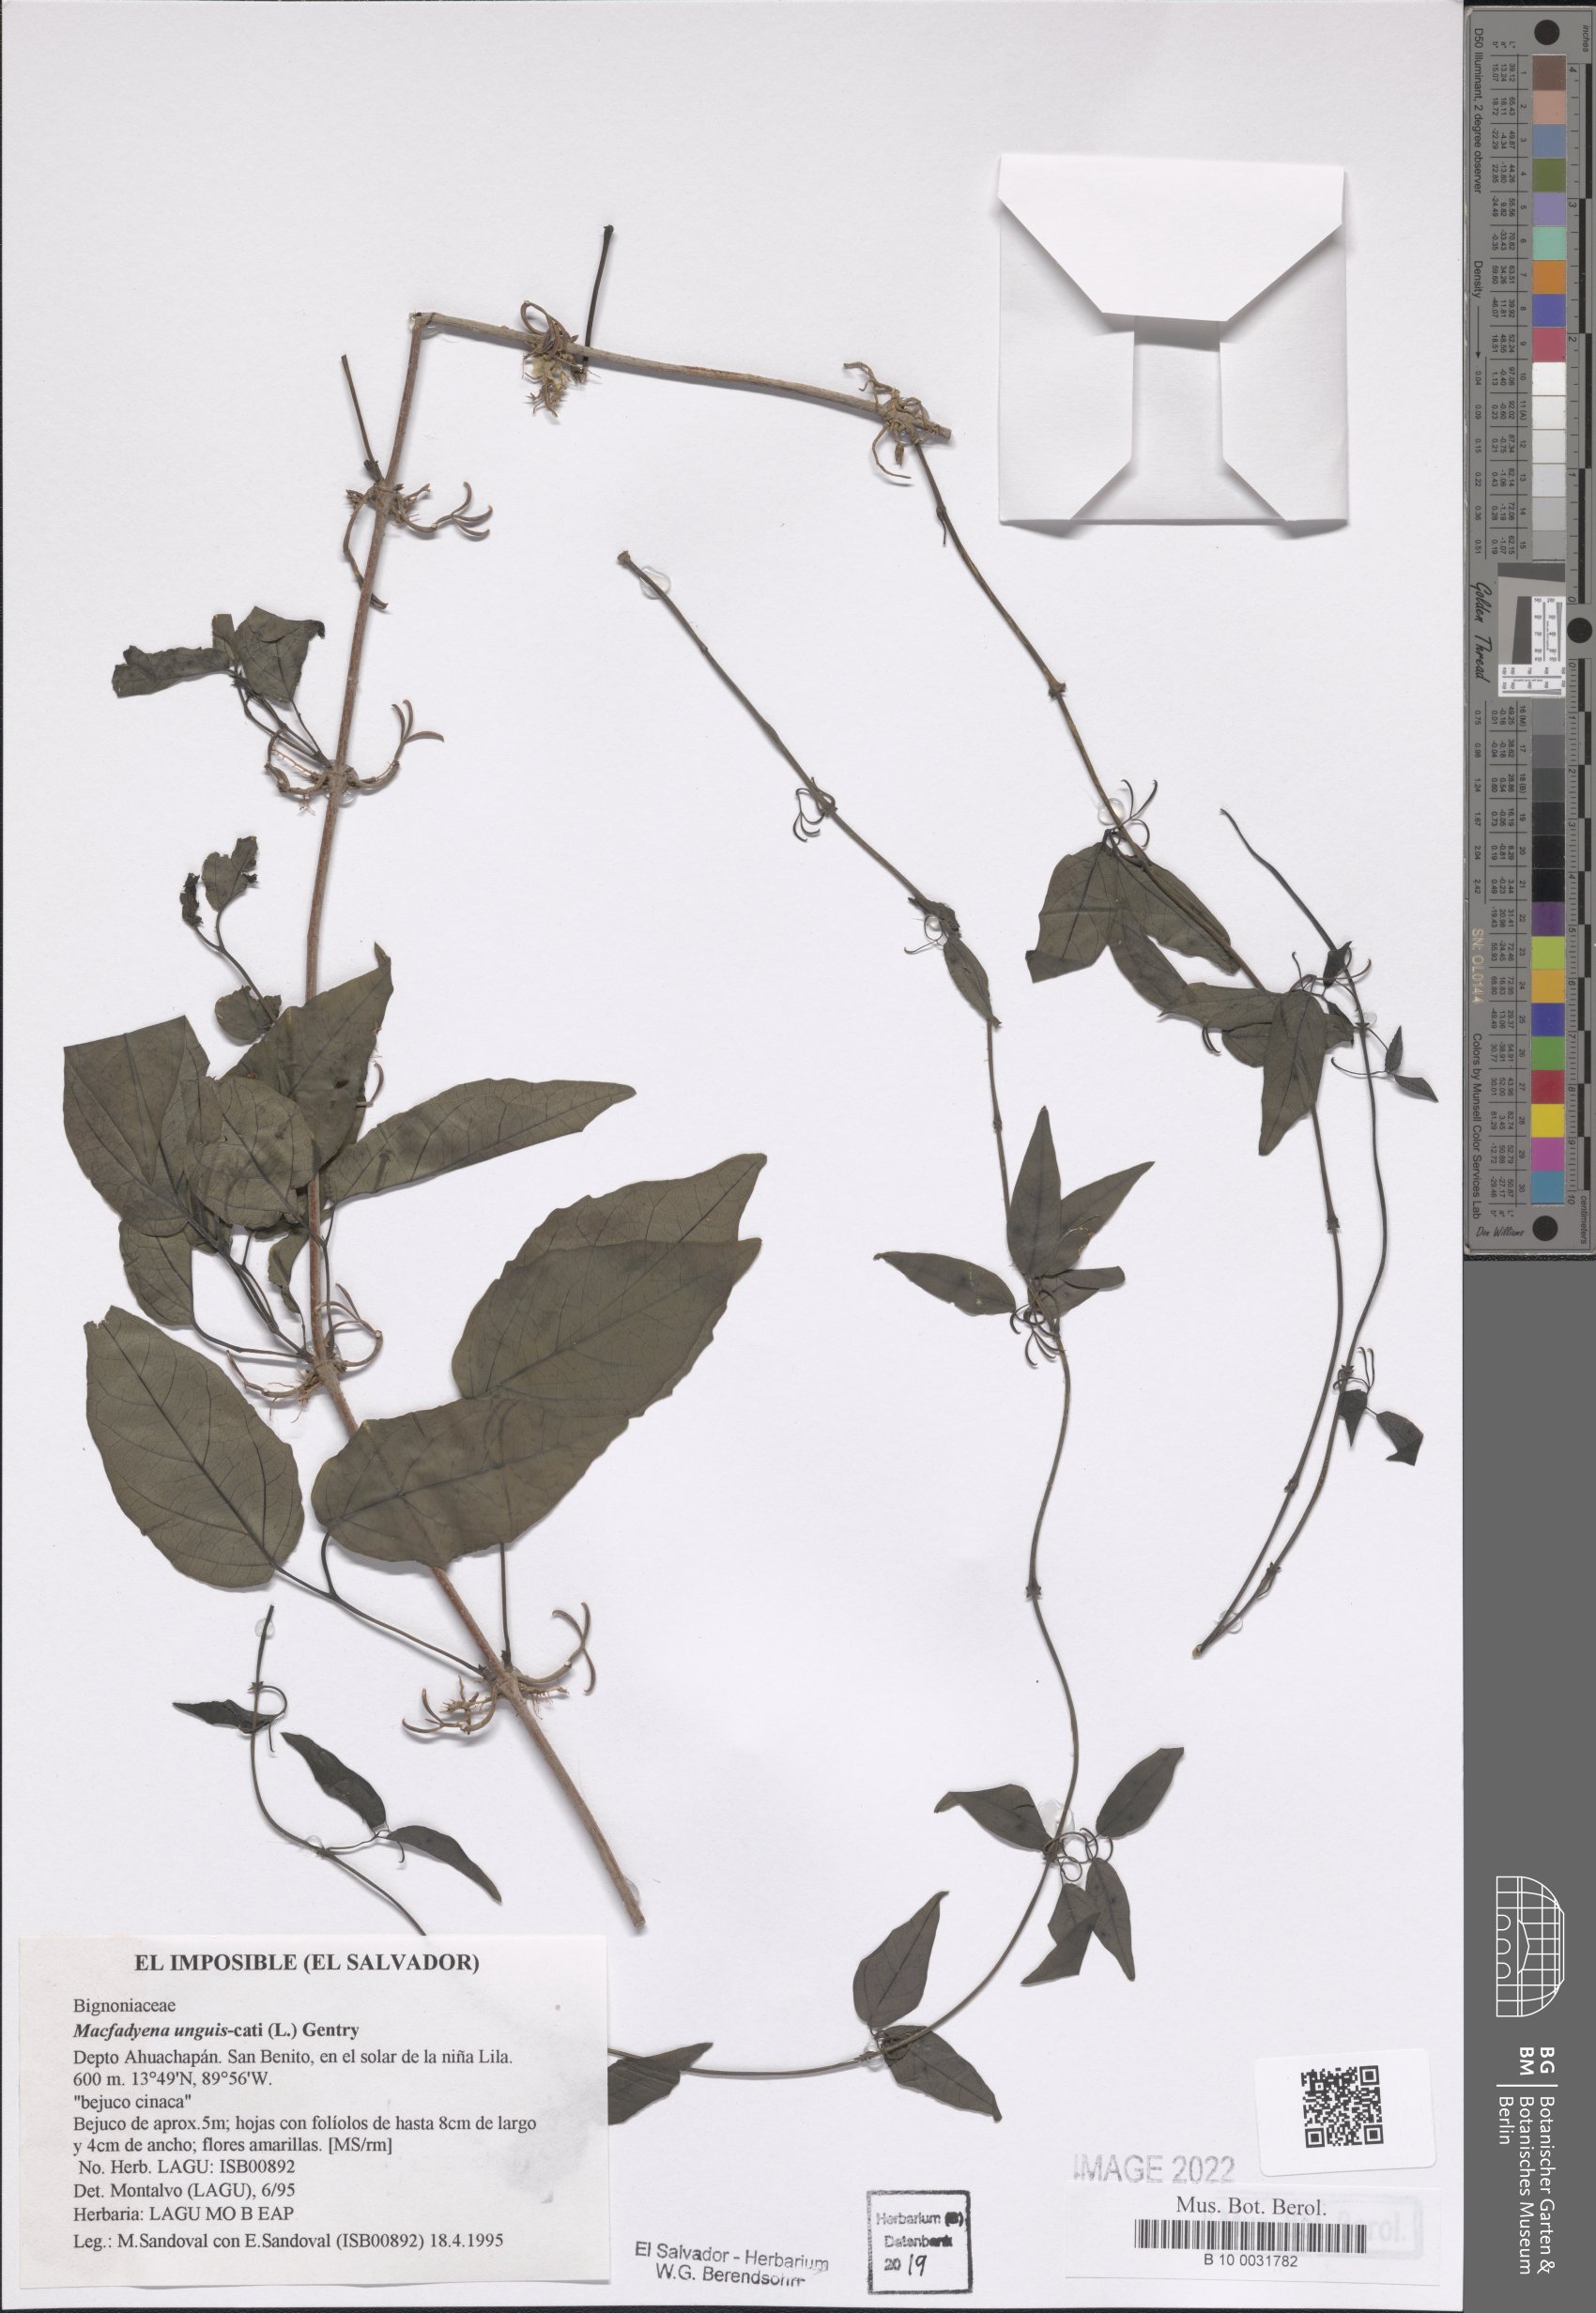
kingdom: Plantae
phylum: Tracheophyta
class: Magnoliopsida
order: Lamiales
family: Bignoniaceae
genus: Dolichandra
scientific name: Dolichandra unguis-cati
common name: Catclaw vine
